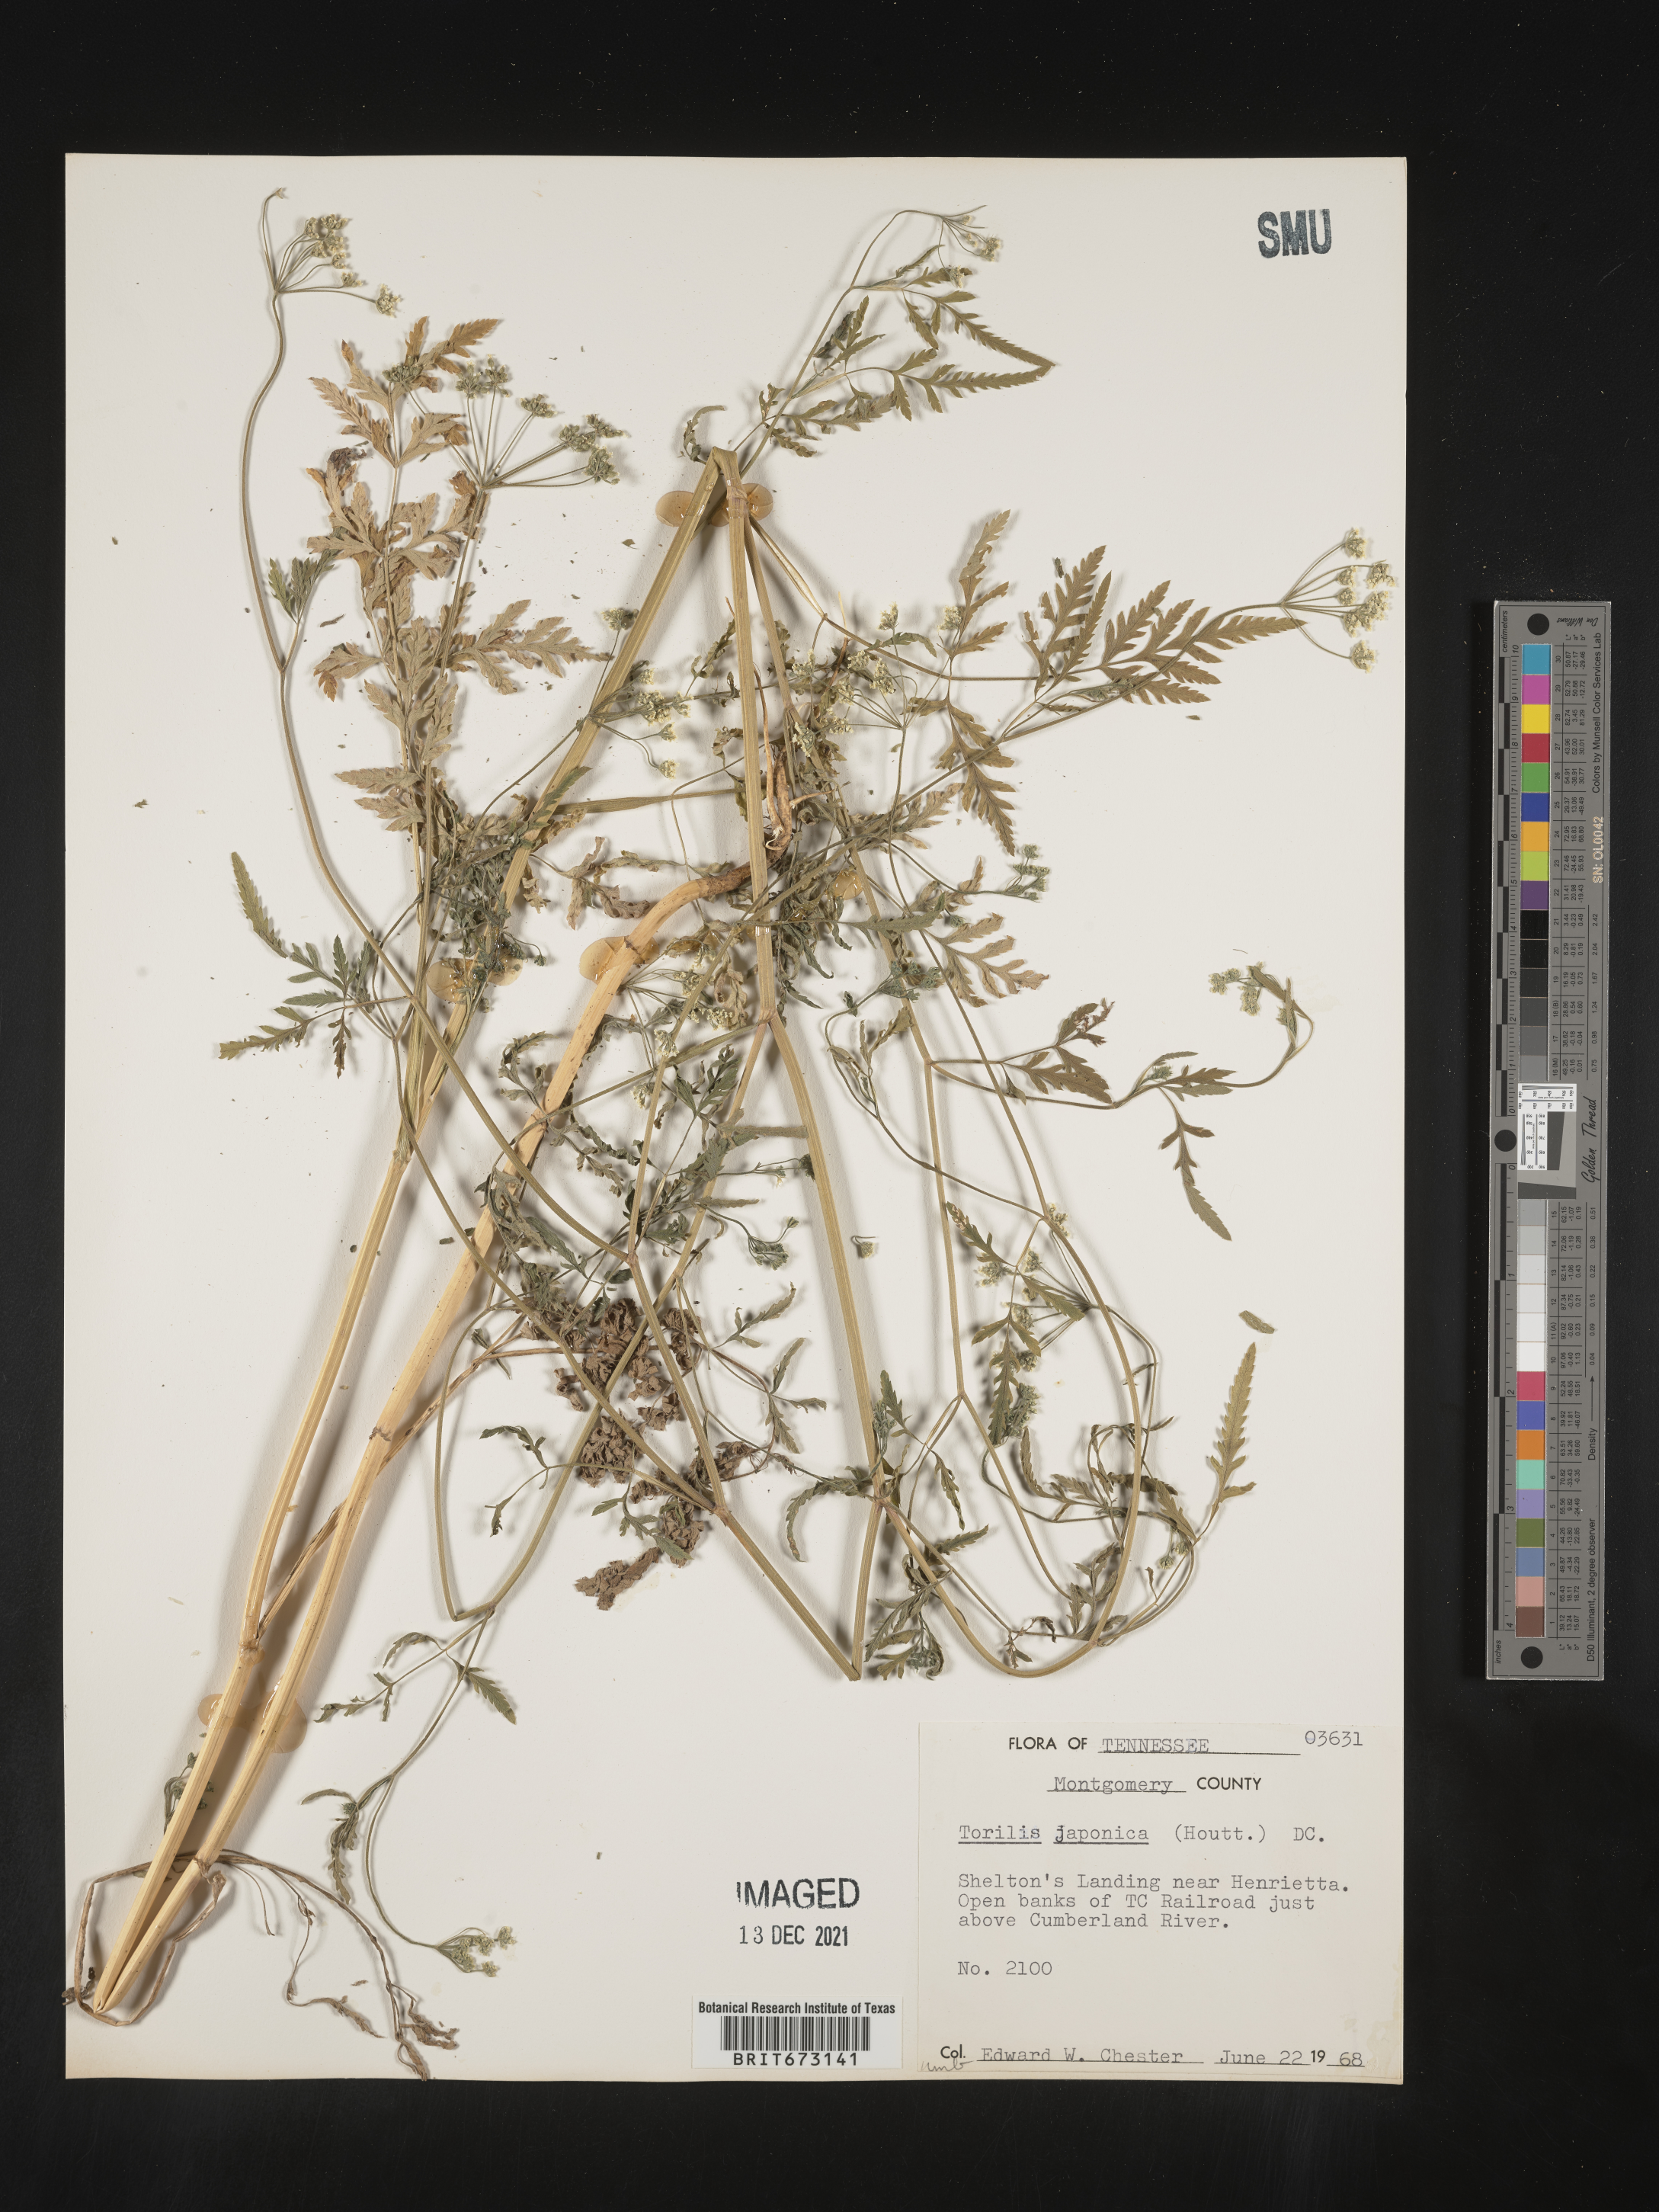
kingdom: Plantae
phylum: Tracheophyta
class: Magnoliopsida
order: Apiales
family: Apiaceae
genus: Torilis
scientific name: Torilis arvensis
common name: Spreading hedge-parsley
